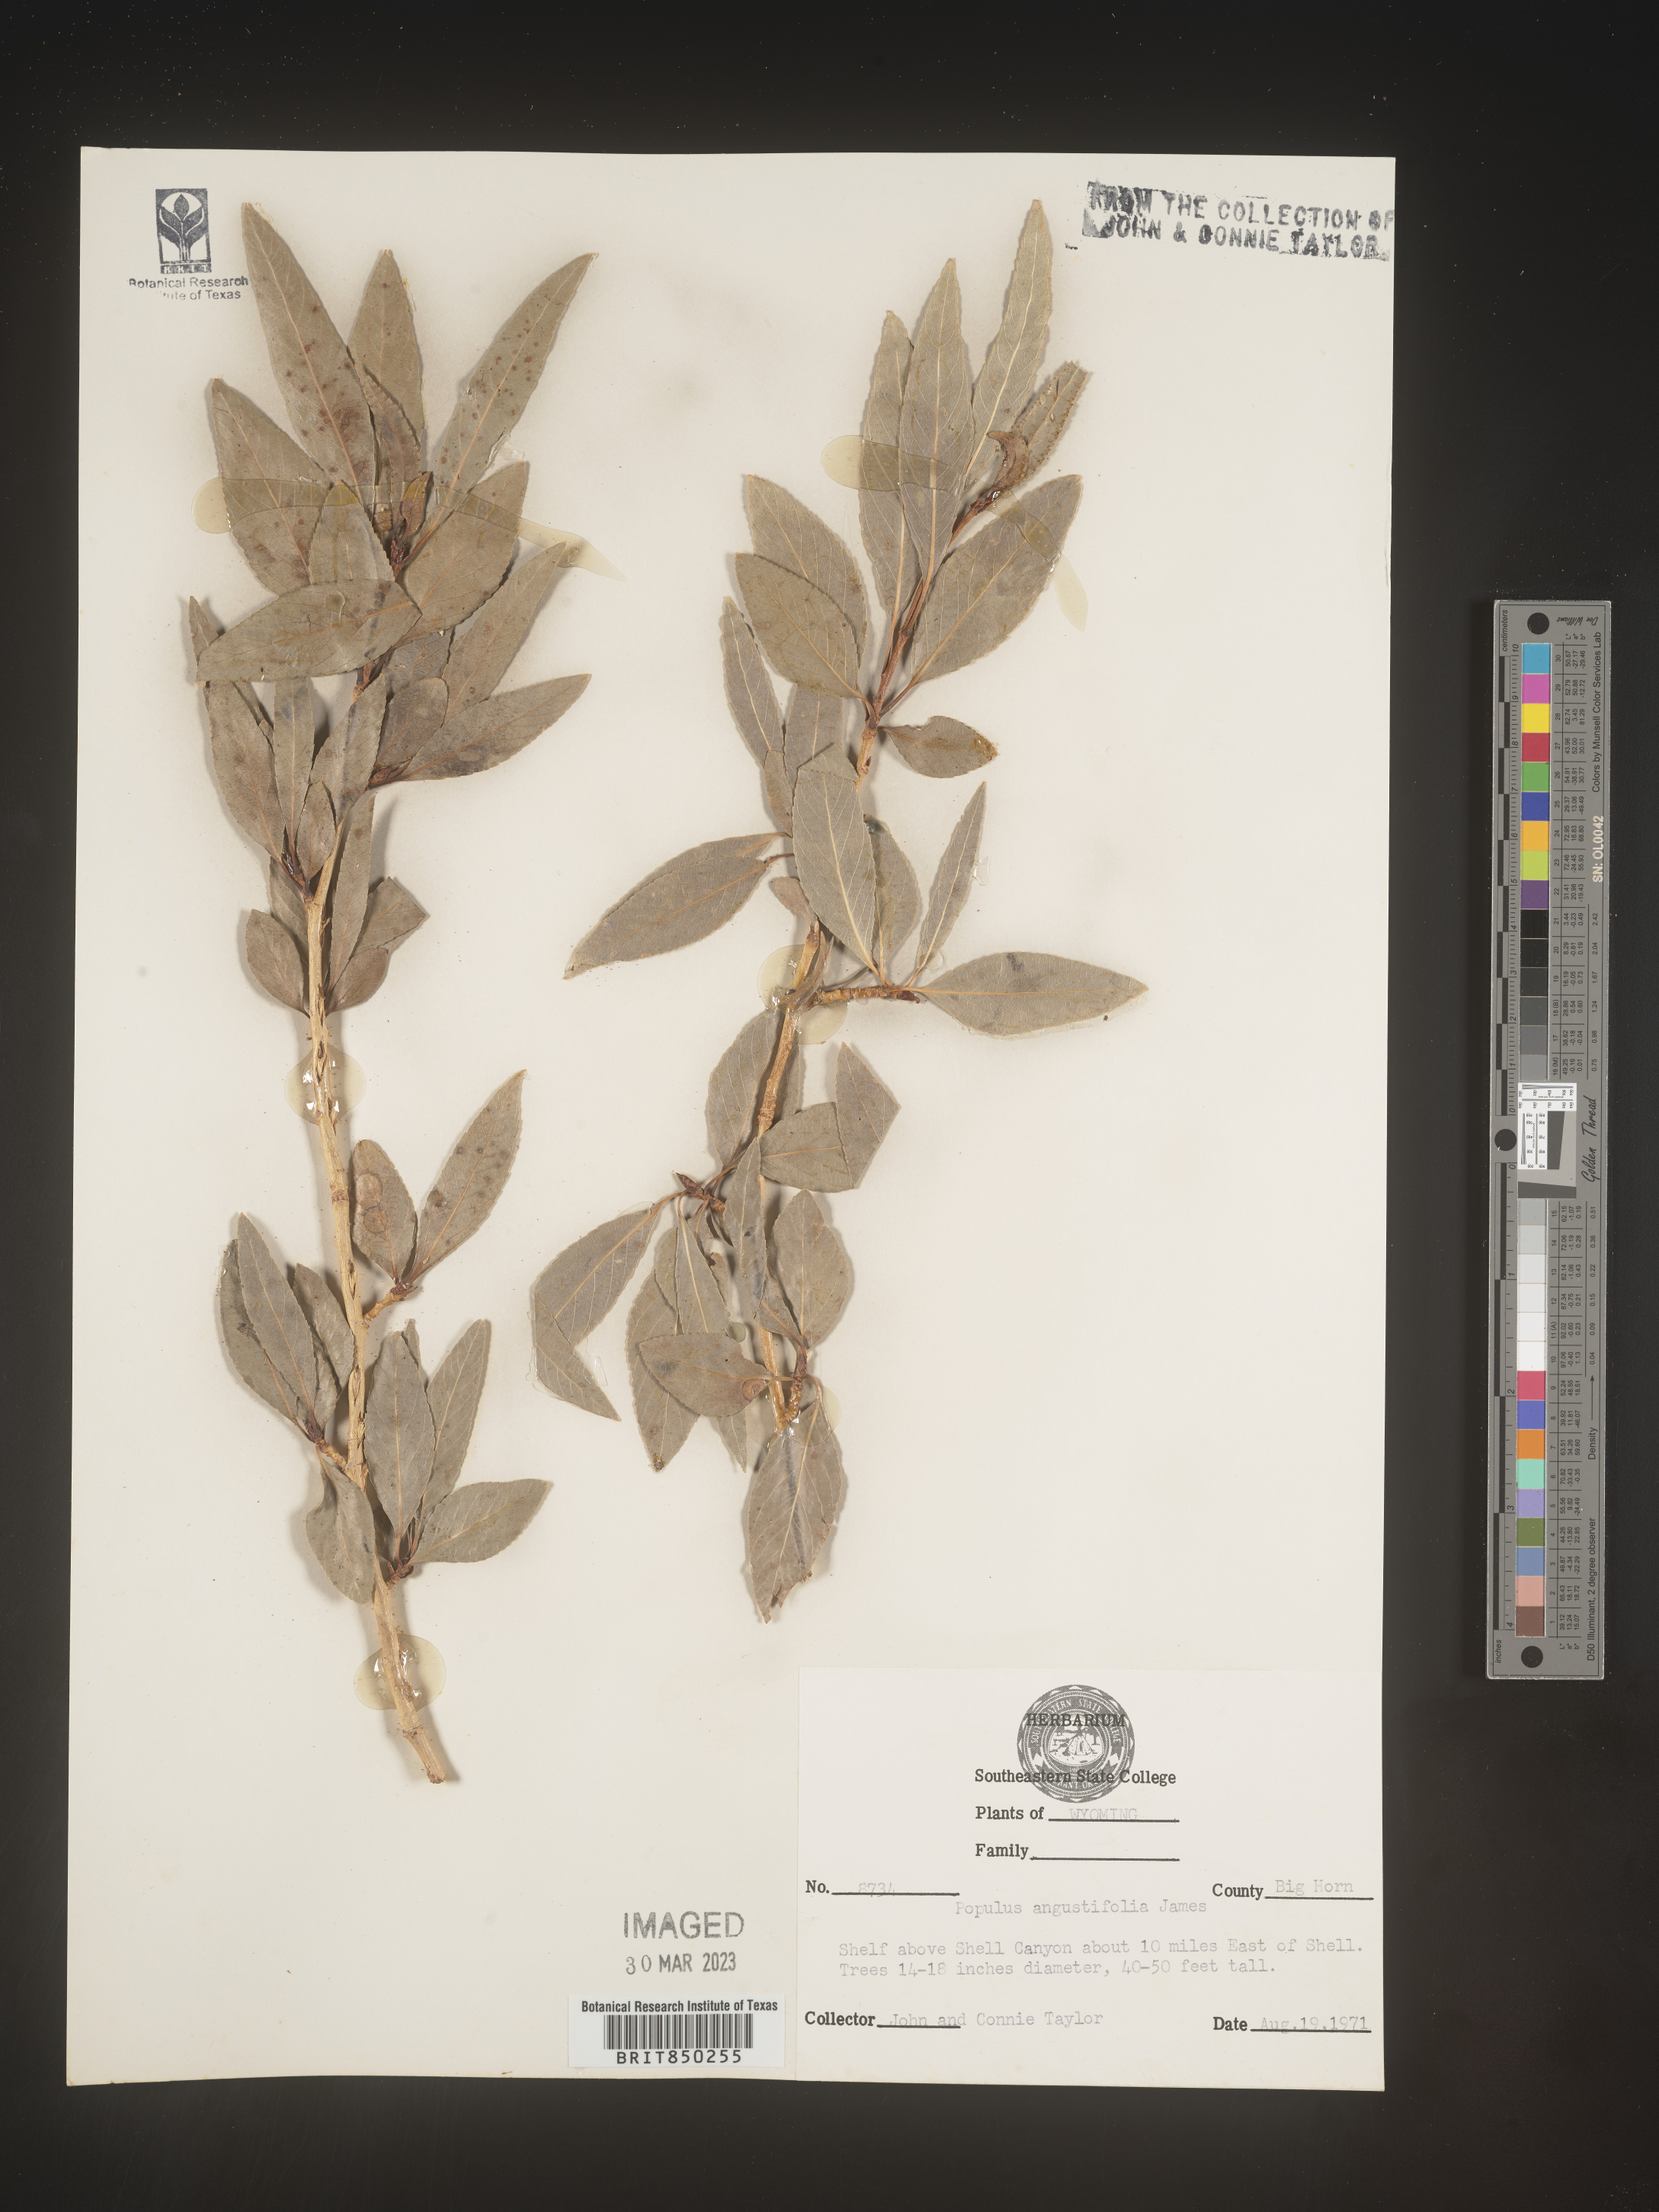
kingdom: Plantae
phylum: Tracheophyta
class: Magnoliopsida
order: Malpighiales
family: Salicaceae
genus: Populus
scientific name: Populus angustifolia
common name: Willow cottonwood
